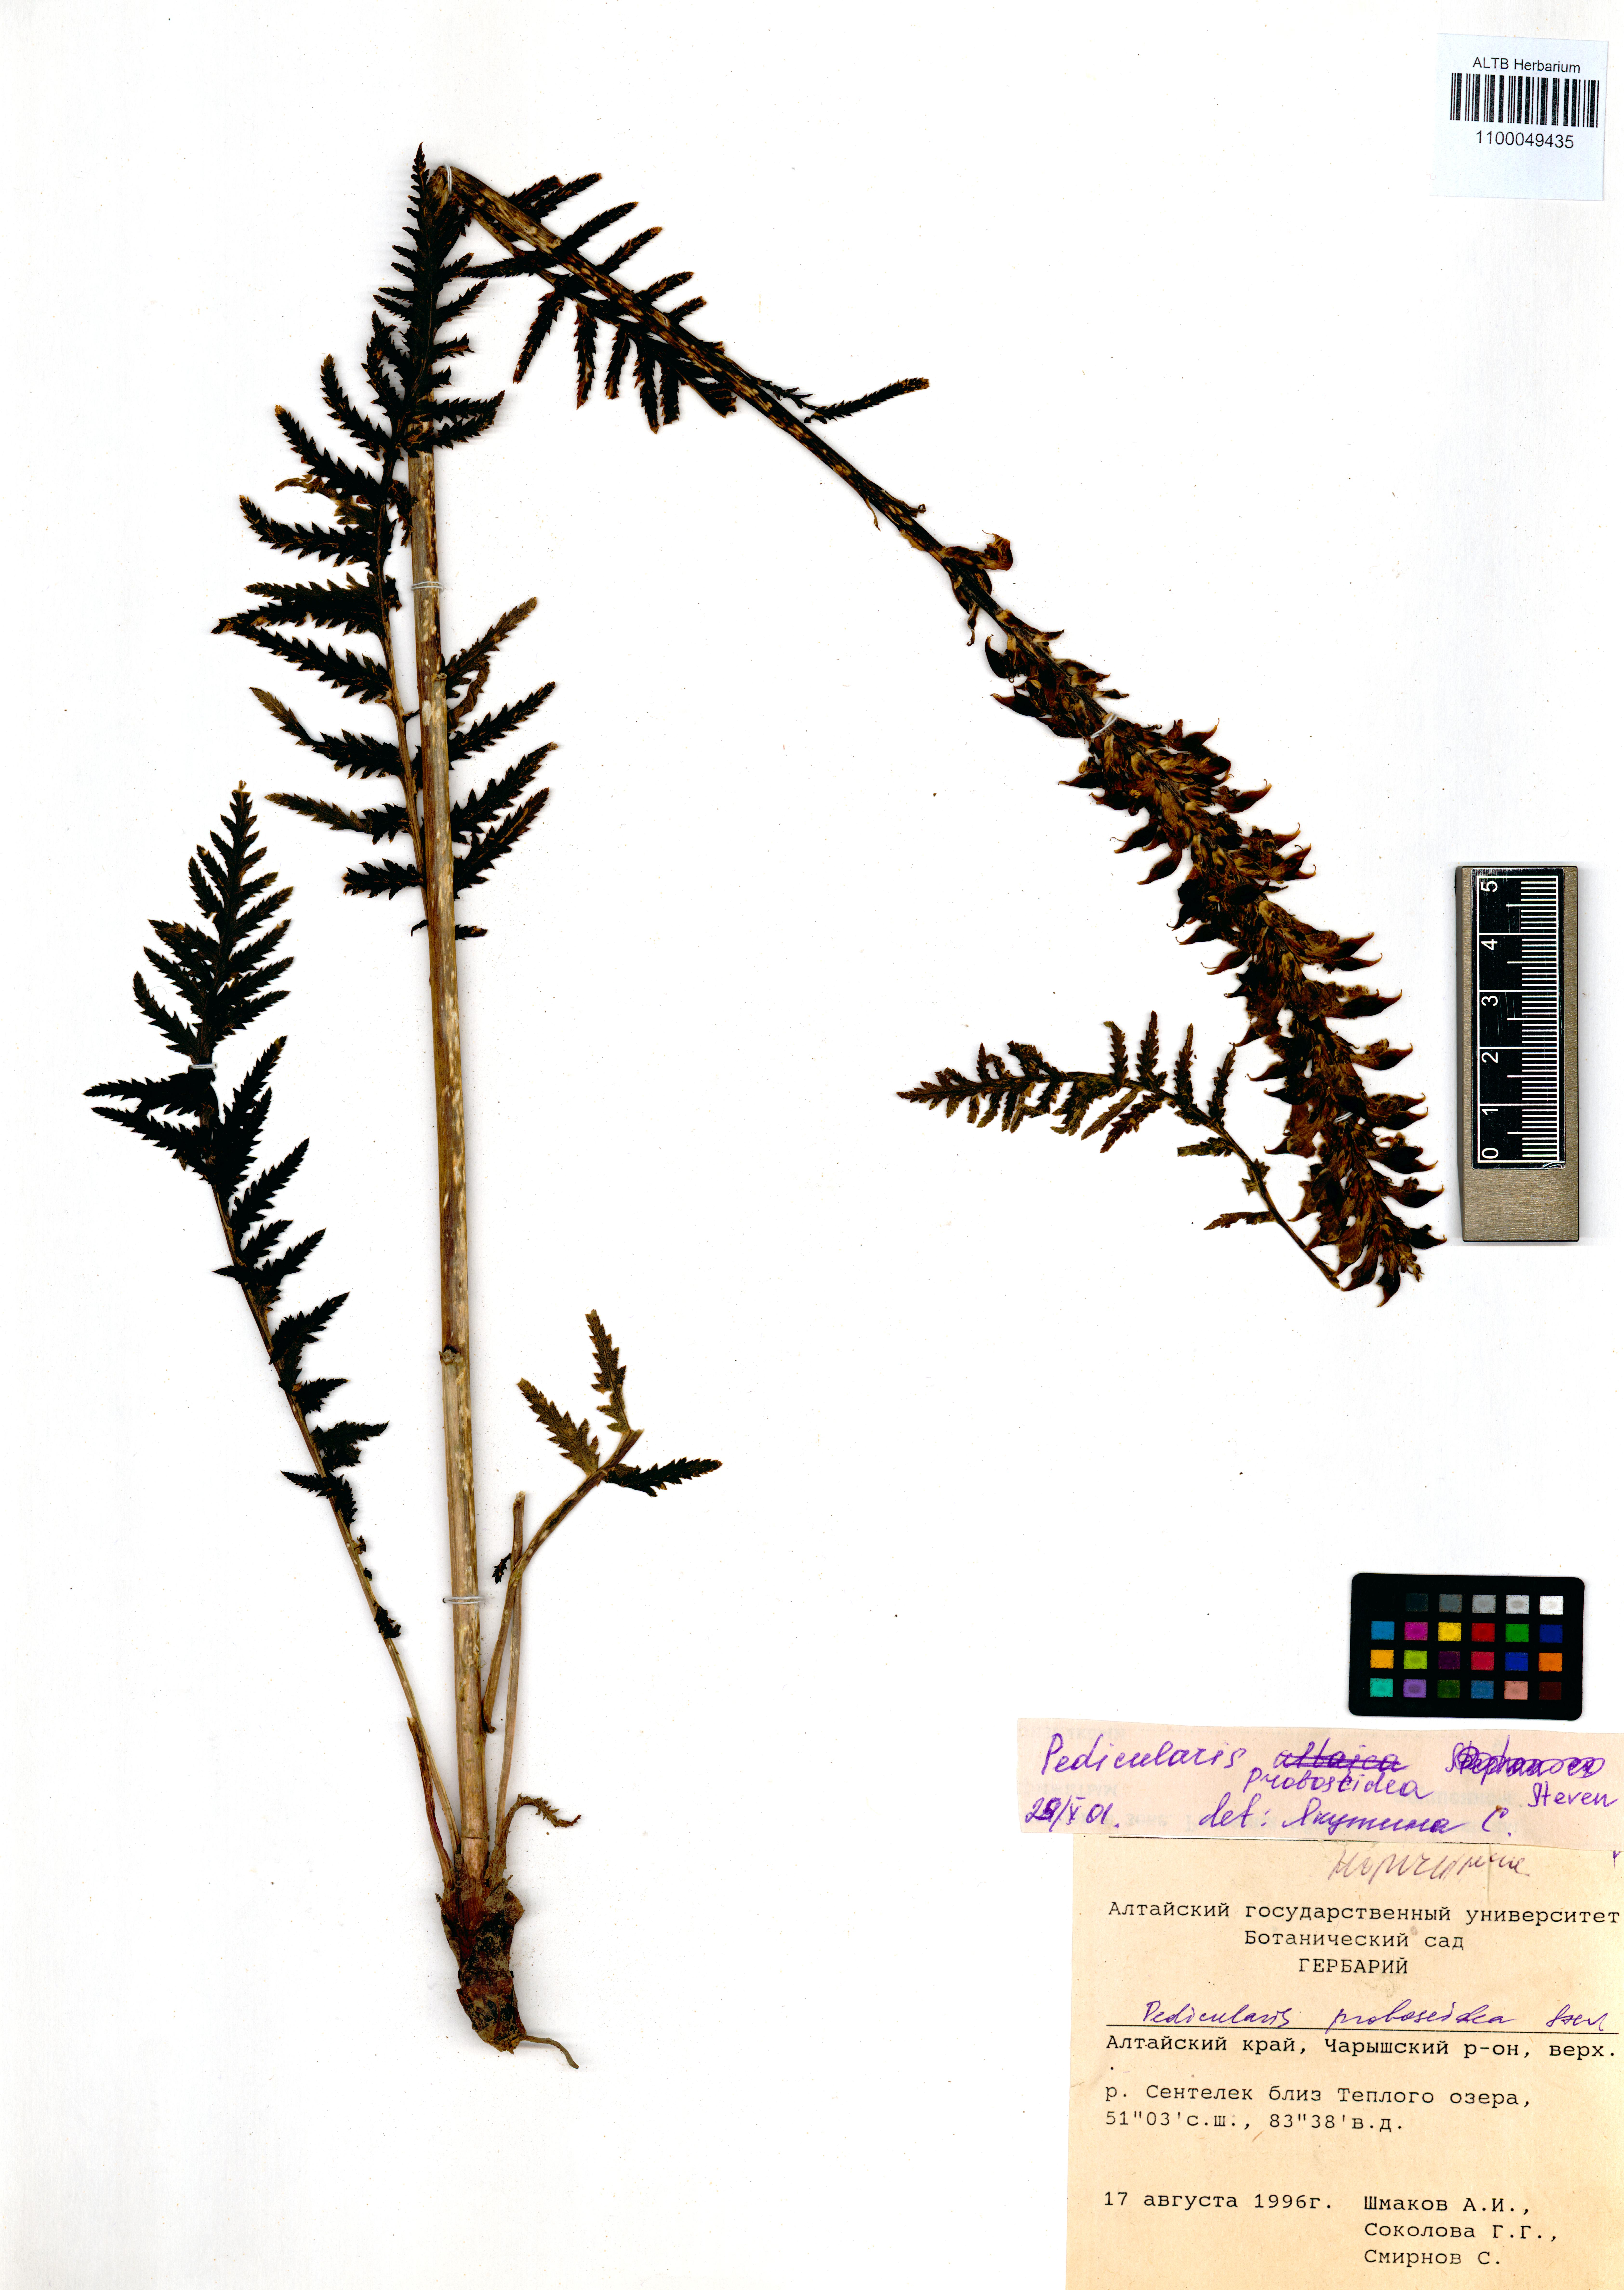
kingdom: Plantae
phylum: Tracheophyta
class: Magnoliopsida
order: Lamiales
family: Orobanchaceae
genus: Pedicularis
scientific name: Pedicularis proboscidea
